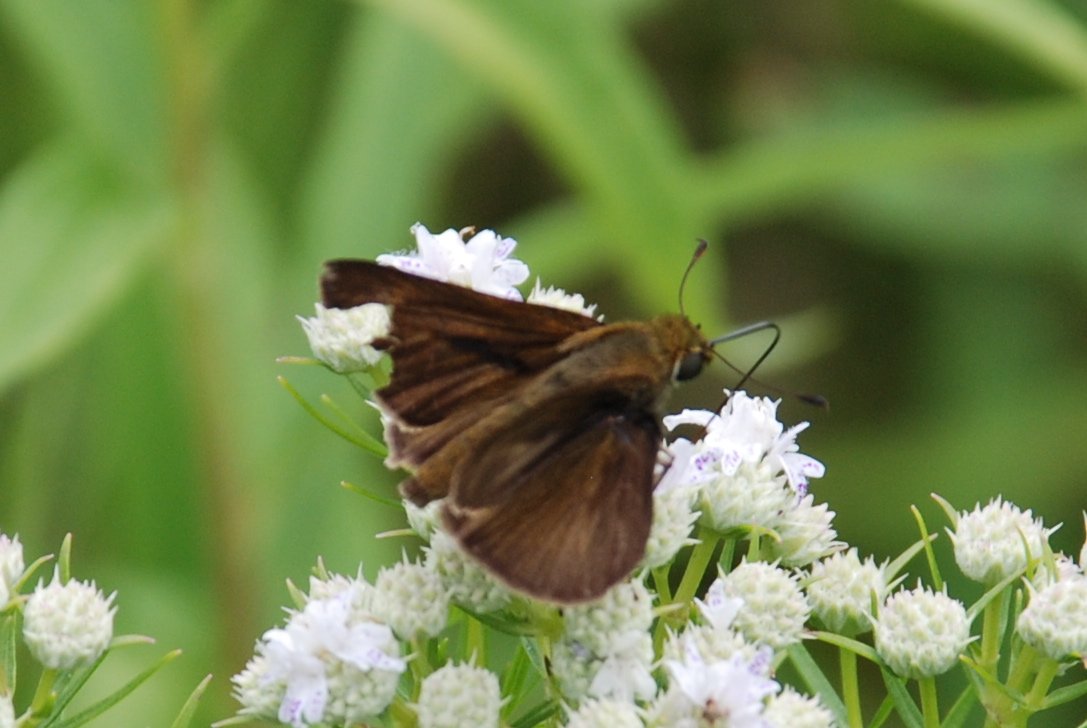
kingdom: Animalia
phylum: Arthropoda
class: Insecta
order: Lepidoptera
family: Hesperiidae
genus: Euphyes
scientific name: Euphyes vestris
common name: Dun Skipper
